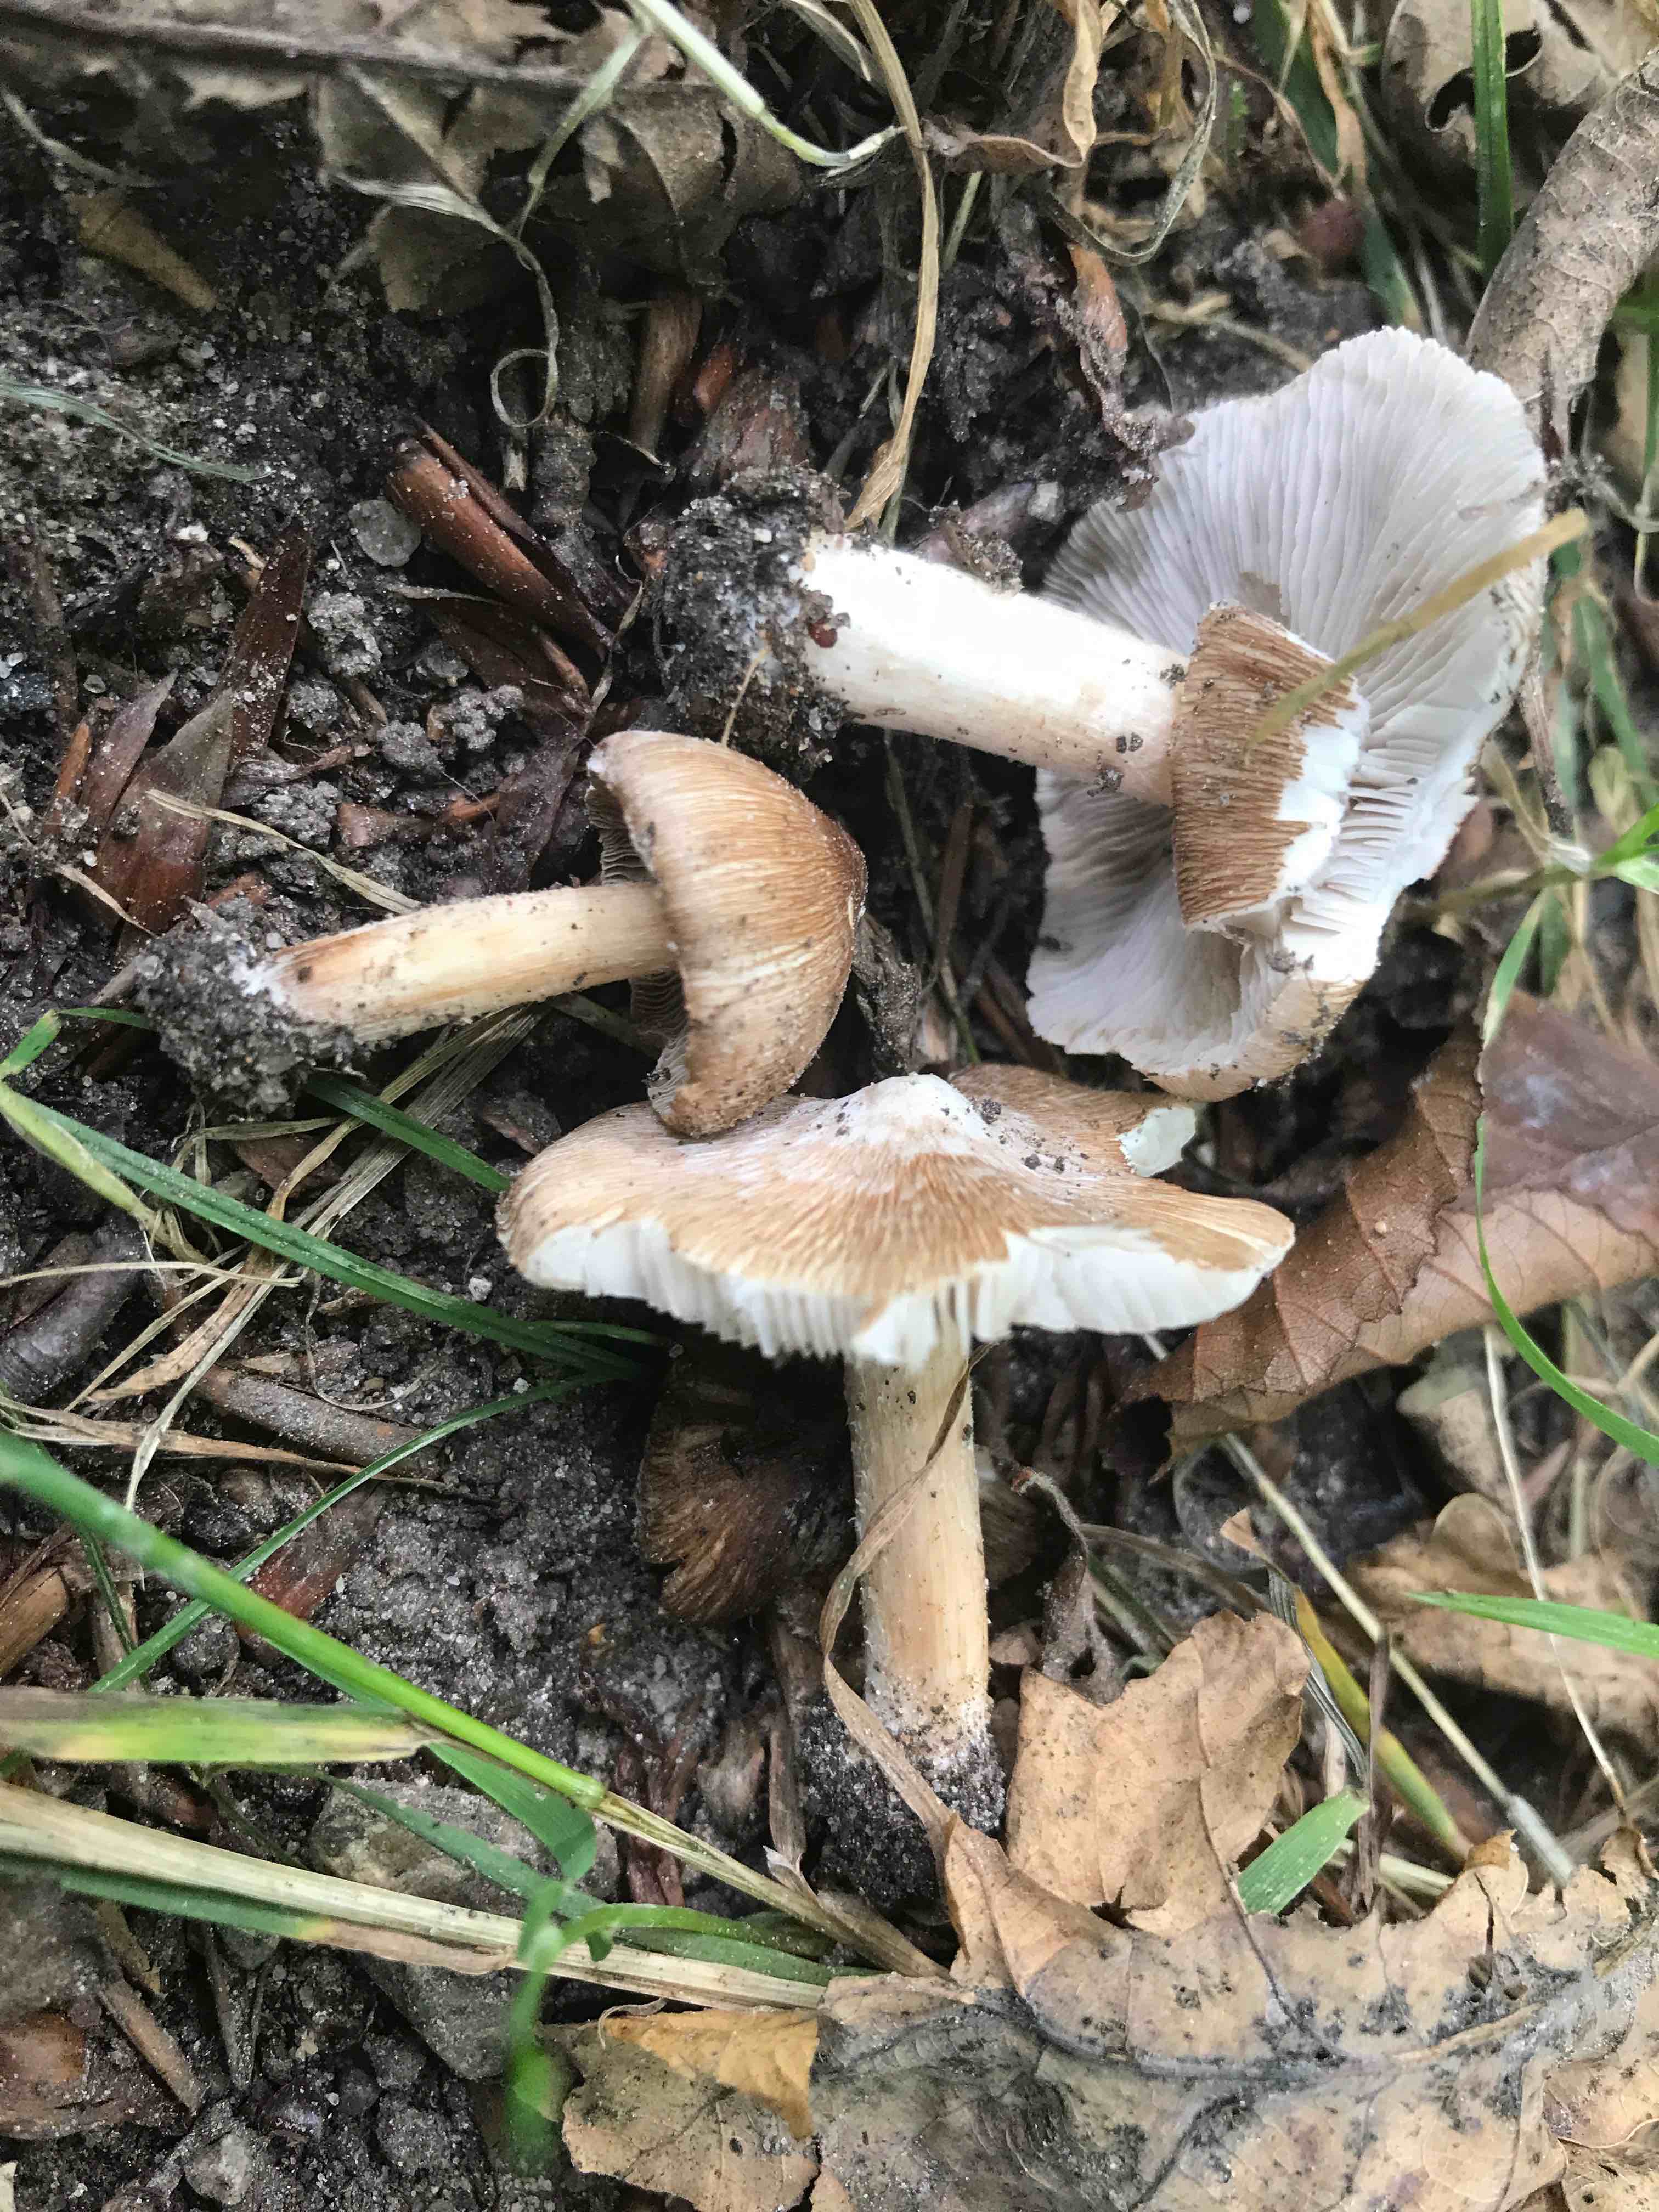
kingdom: Fungi
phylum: Basidiomycota
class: Agaricomycetes
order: Agaricales
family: Inocybaceae
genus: Inosperma
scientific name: Inosperma
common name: Trævlhat
